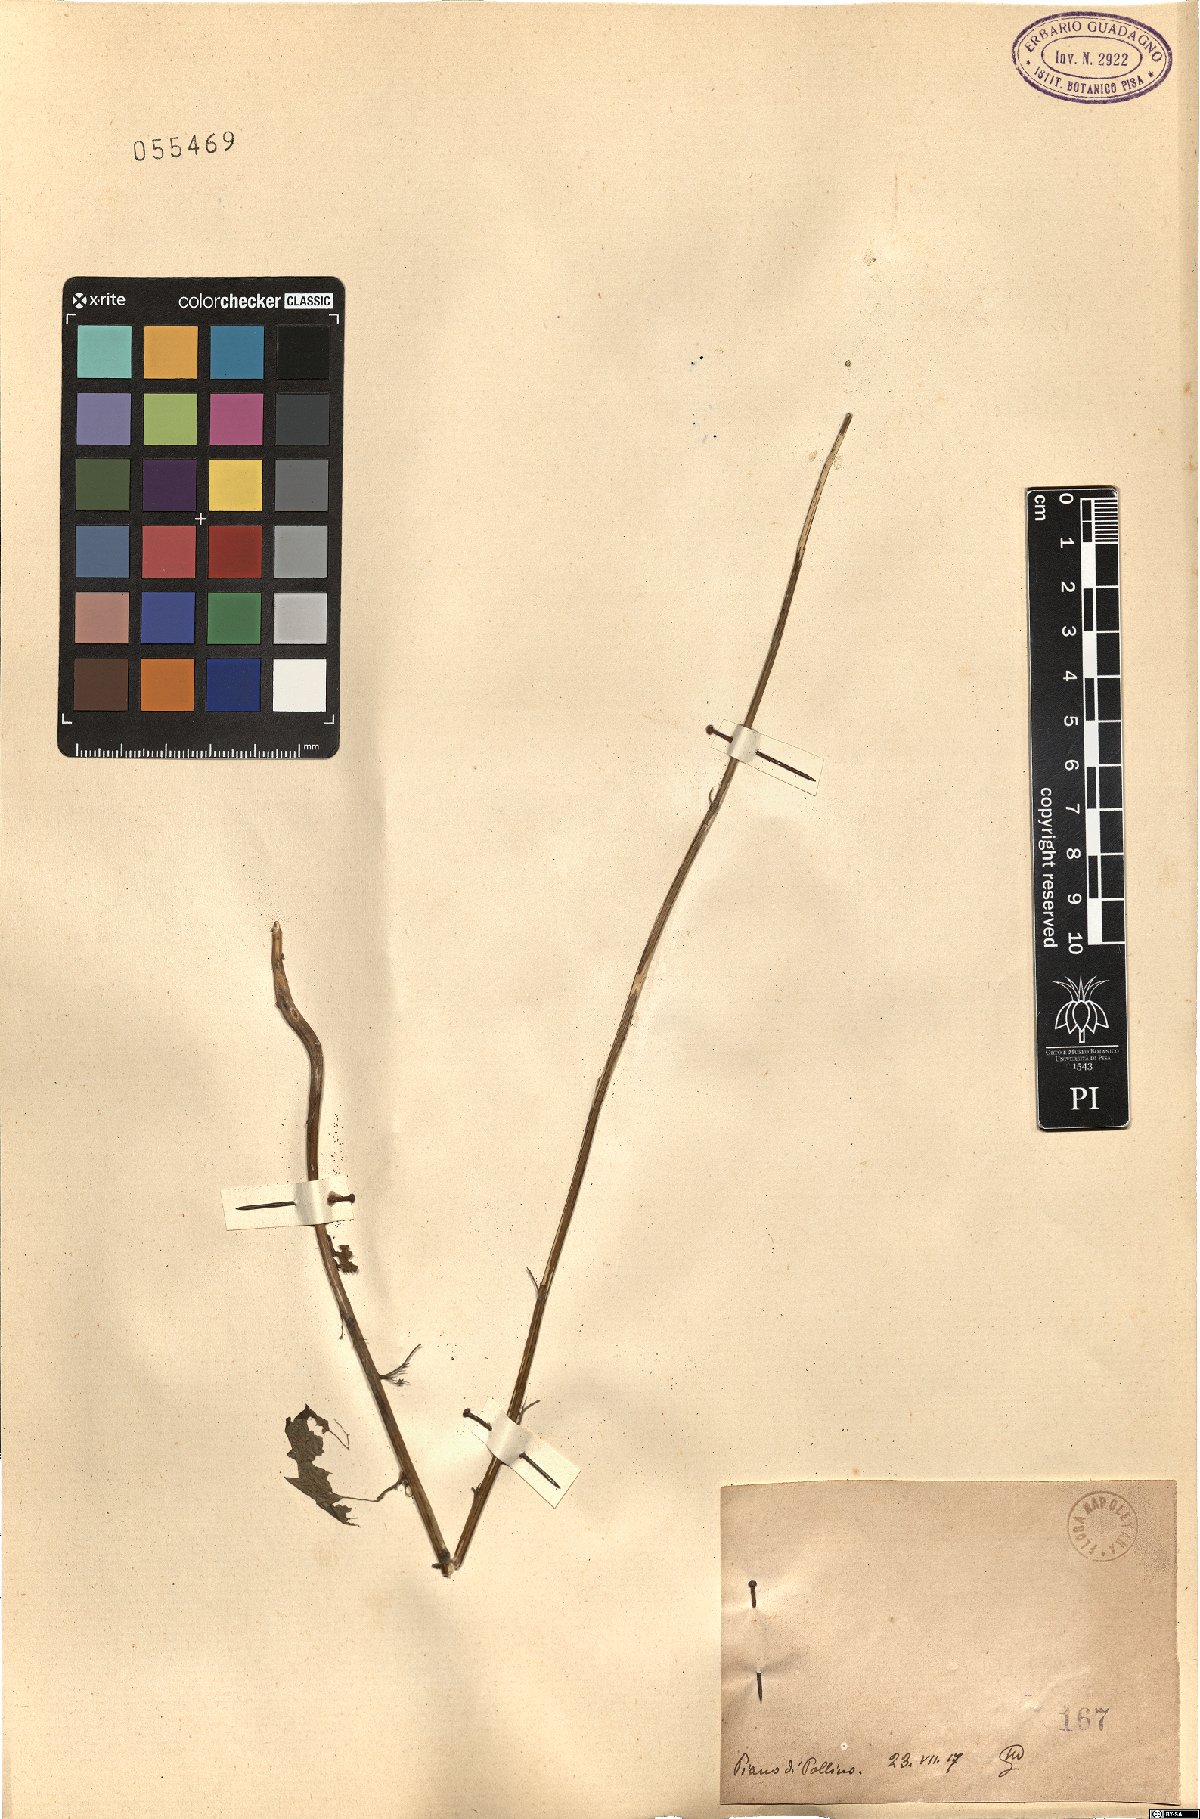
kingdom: Plantae
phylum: Tracheophyta
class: Magnoliopsida
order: Asterales
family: Campanulaceae
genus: Campanula
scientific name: Campanula
